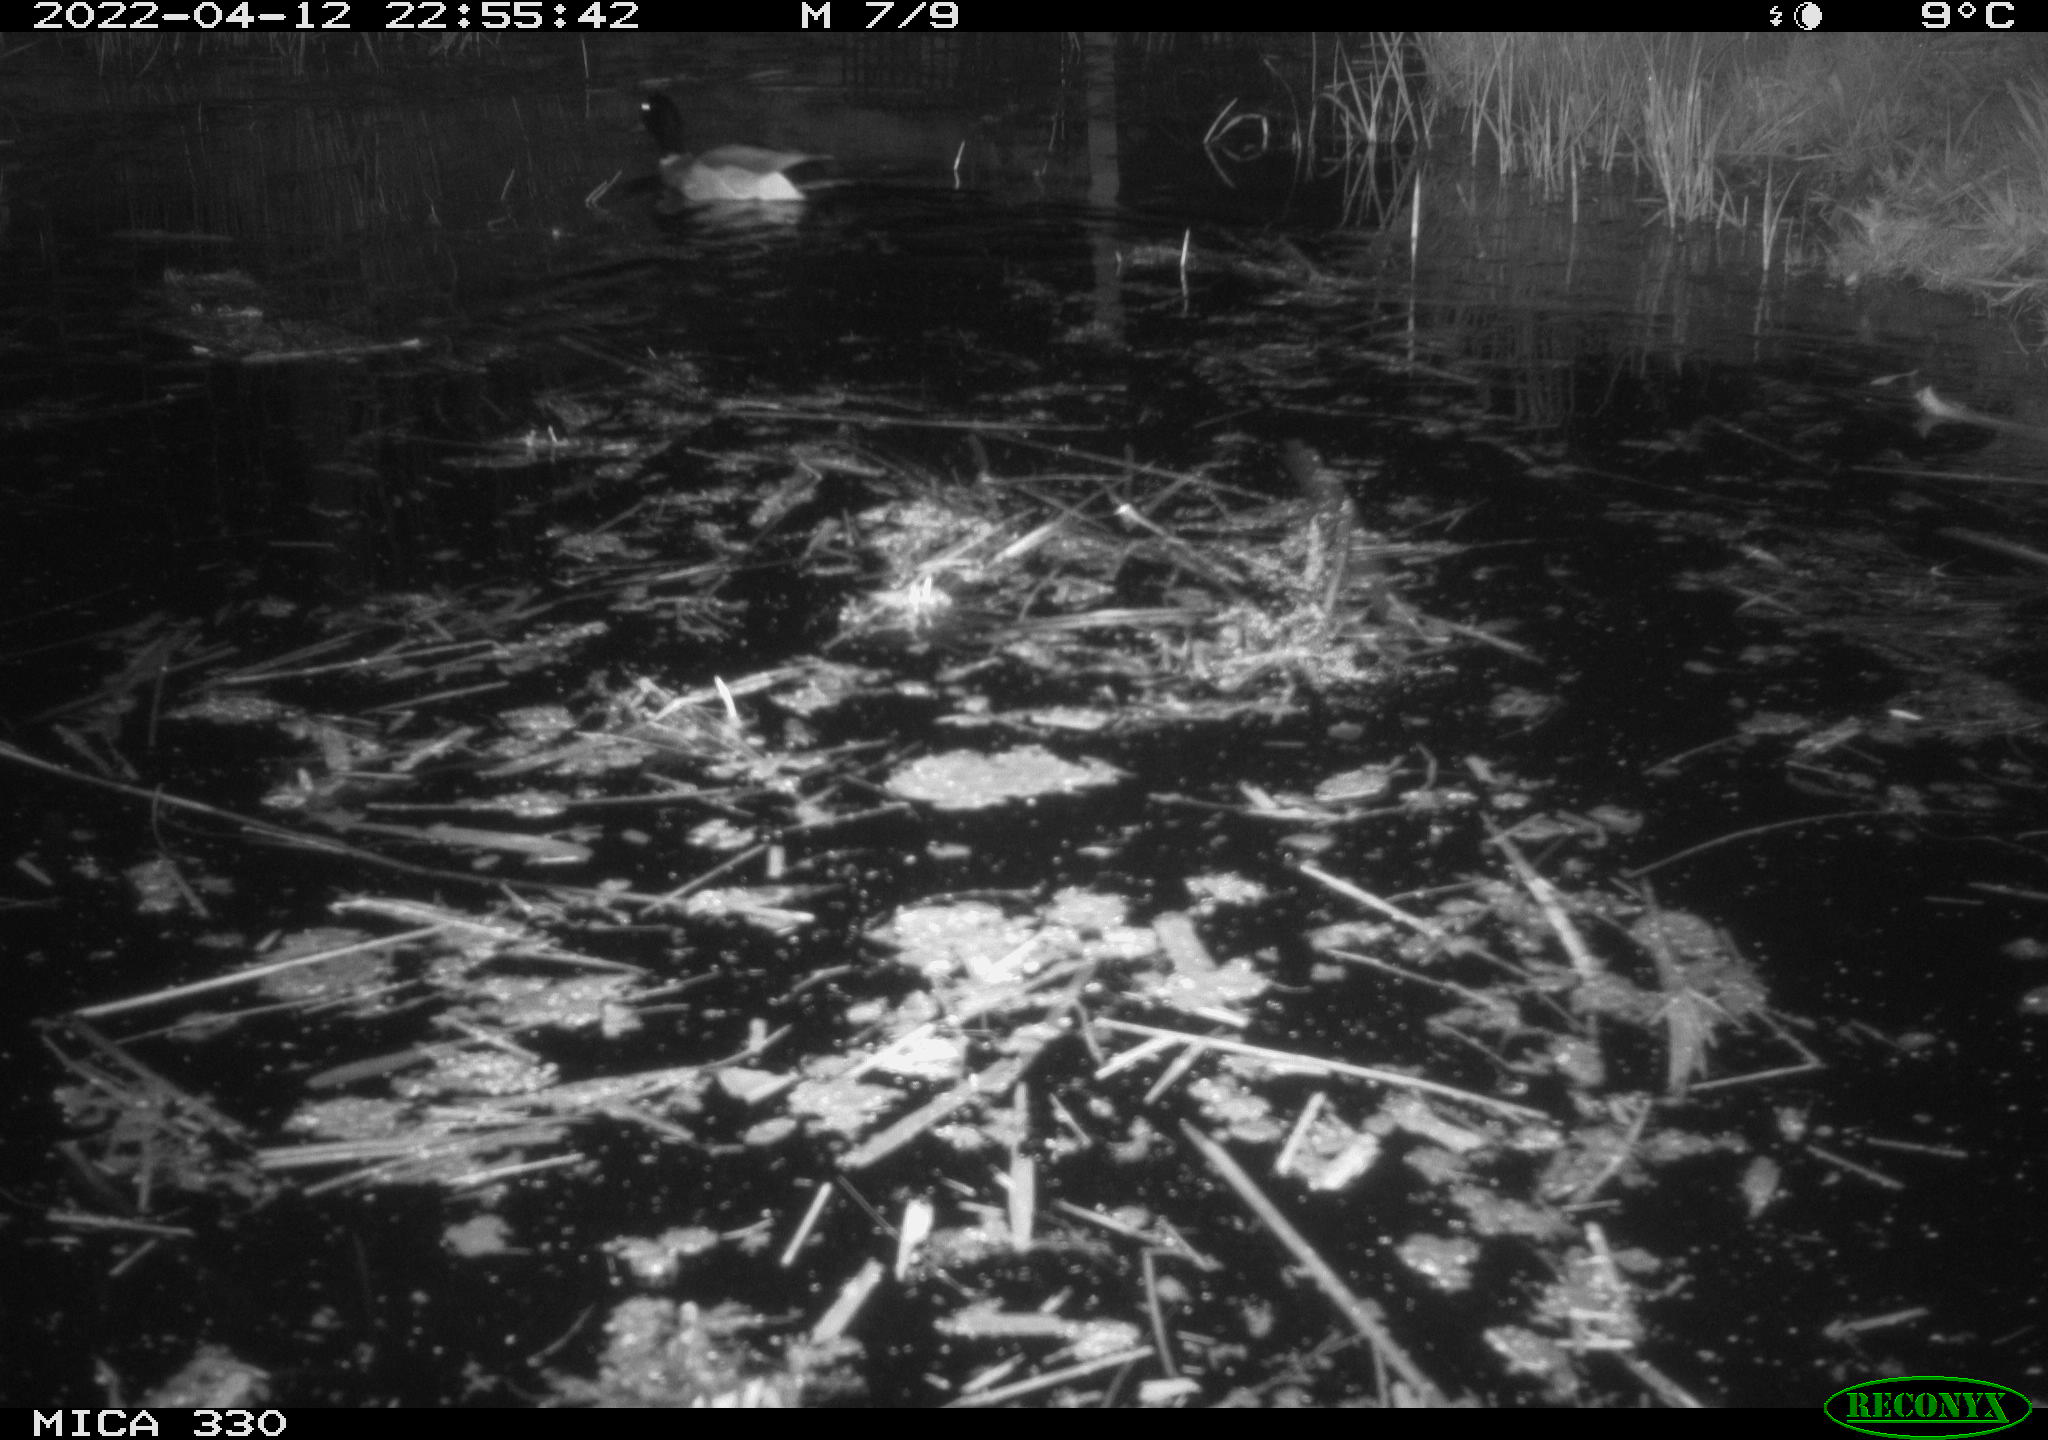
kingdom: Animalia
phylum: Chordata
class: Aves
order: Anseriformes
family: Anatidae
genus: Anas
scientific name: Anas platyrhynchos
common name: Mallard
